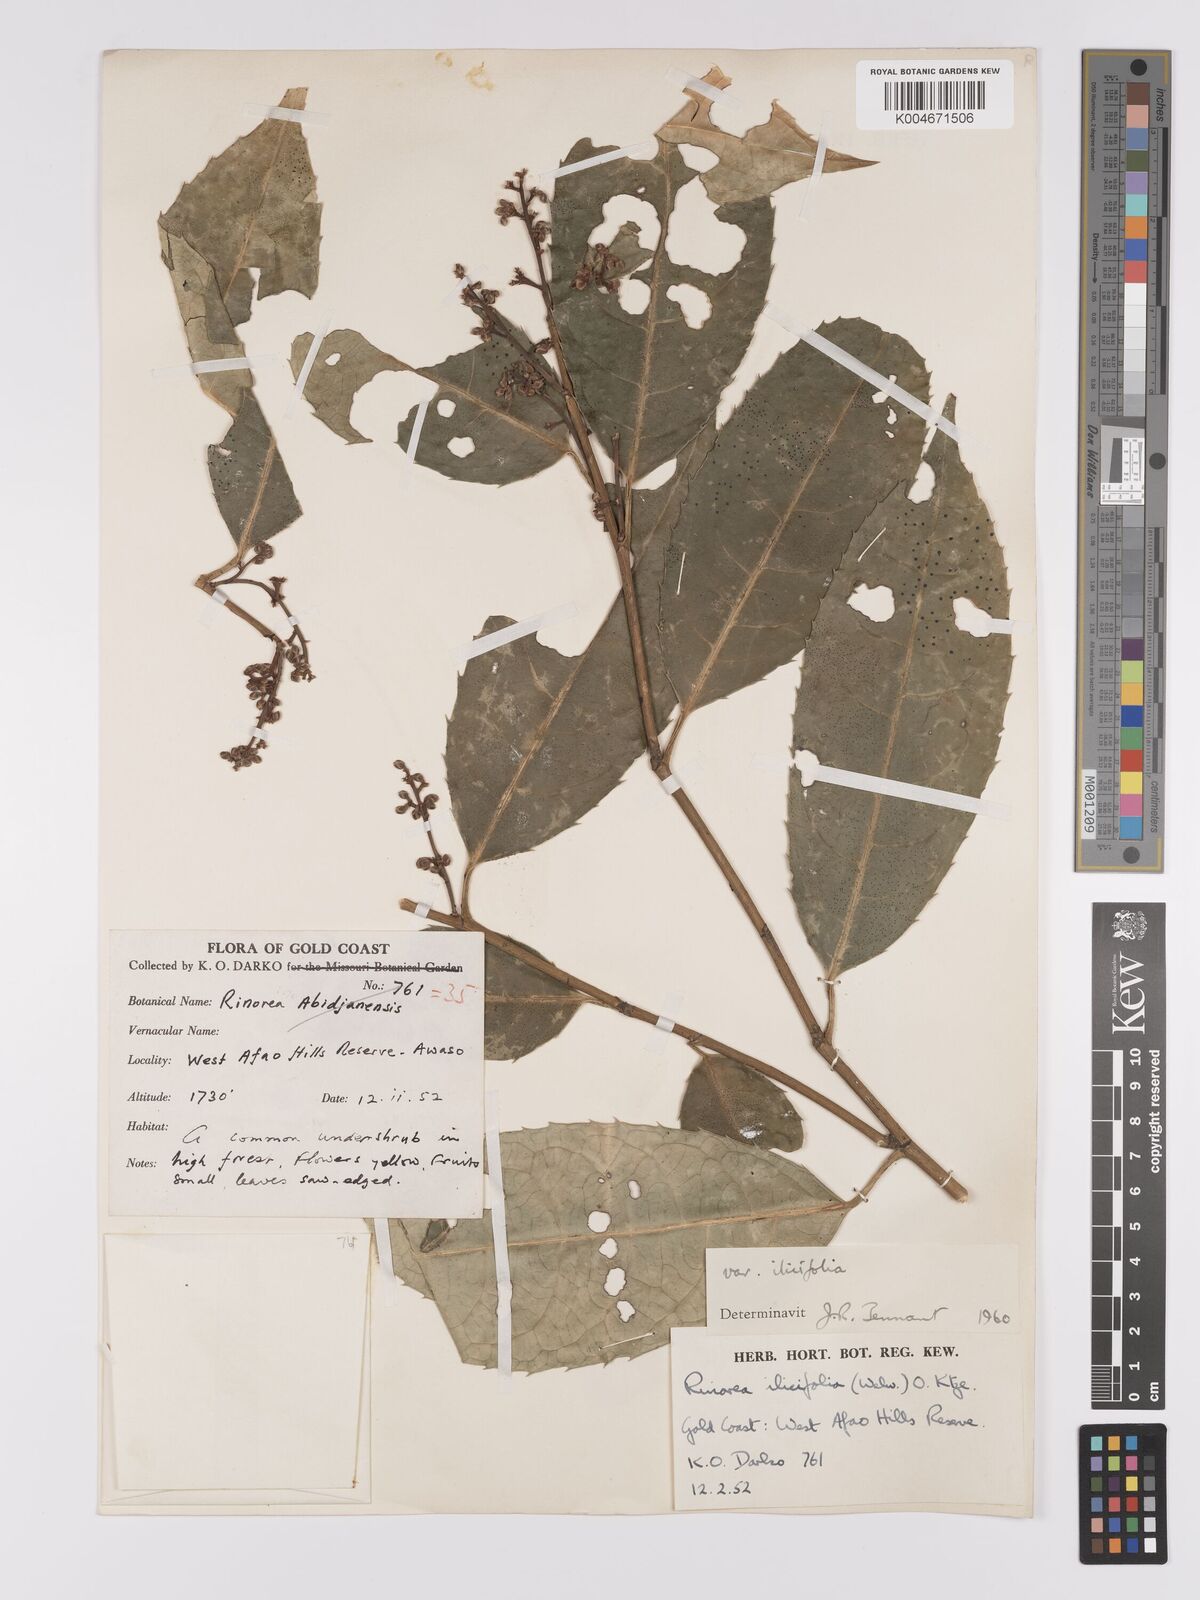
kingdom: Plantae
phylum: Tracheophyta
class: Magnoliopsida
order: Malpighiales
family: Violaceae
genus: Rinorea
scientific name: Rinorea ilicifolia
